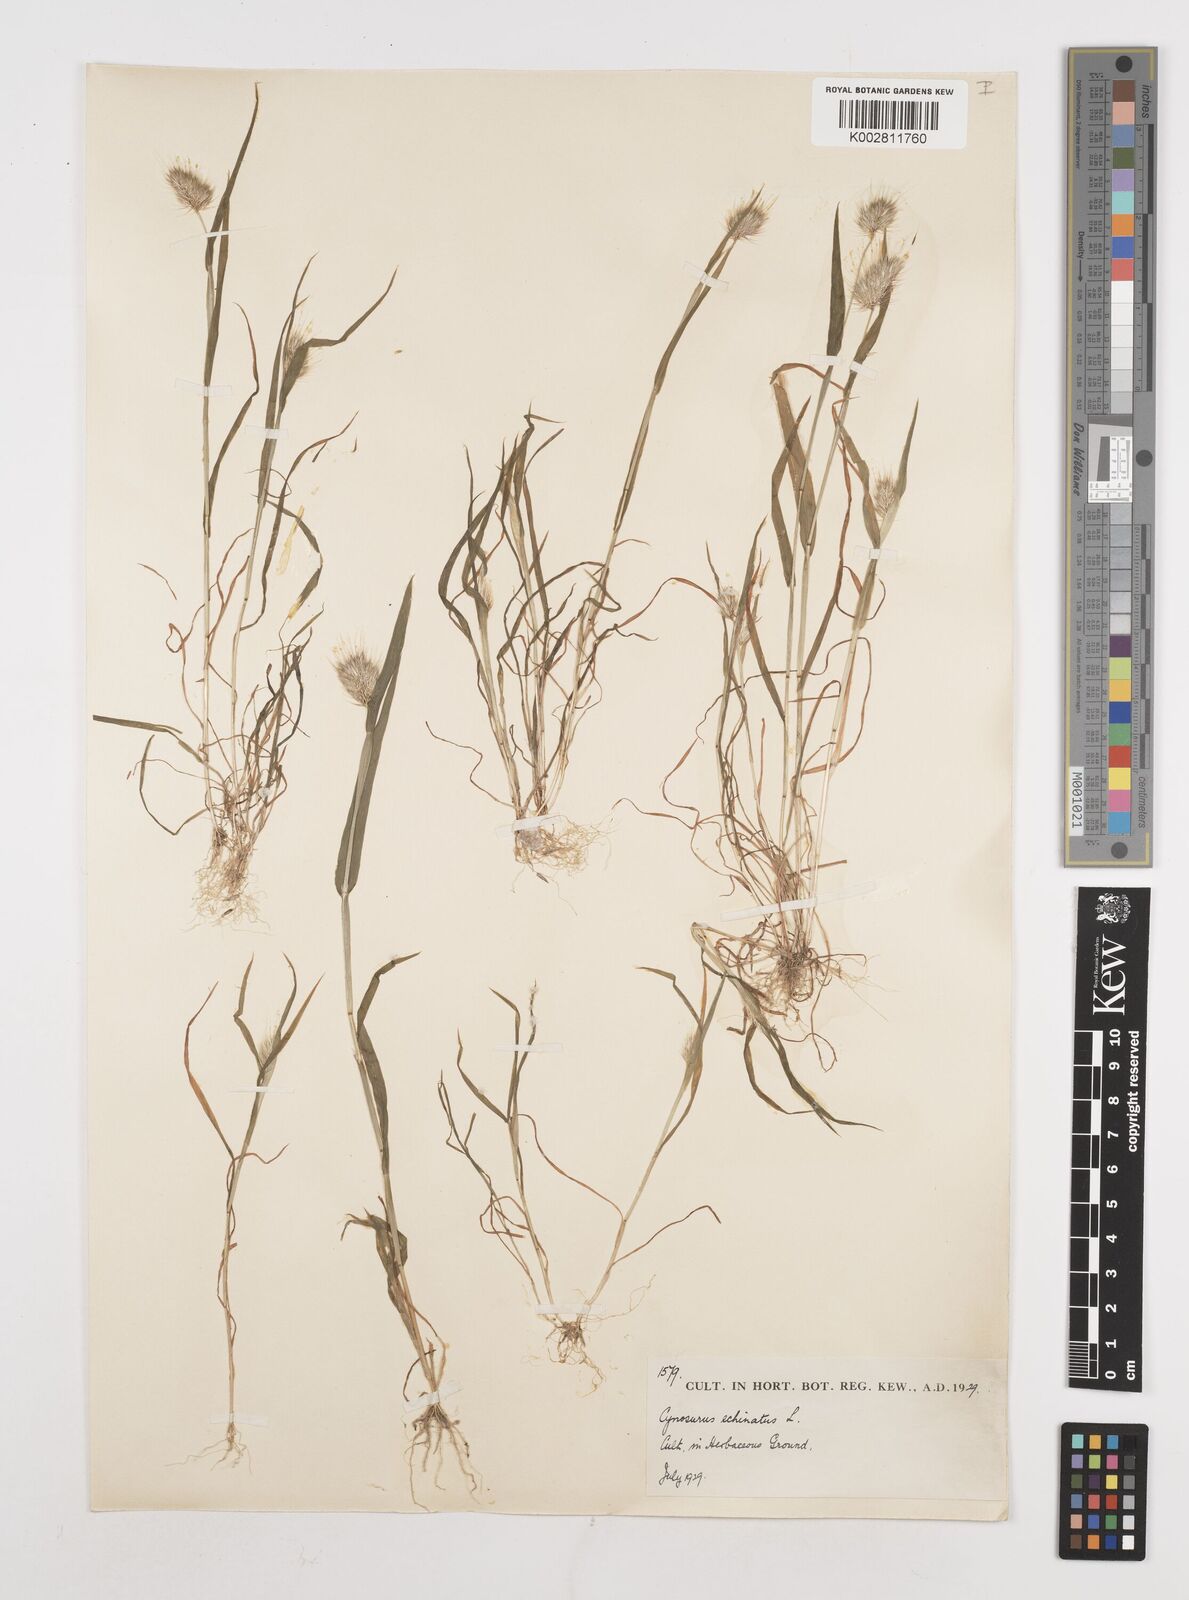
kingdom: Plantae
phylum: Tracheophyta
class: Liliopsida
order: Poales
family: Poaceae
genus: Cynosurus
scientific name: Cynosurus echinatus
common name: Rough dog's-tail
